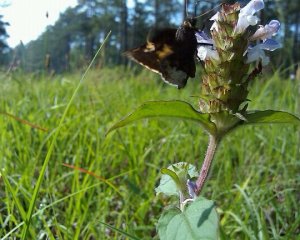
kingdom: Animalia
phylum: Arthropoda
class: Insecta
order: Lepidoptera
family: Hesperiidae
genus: Achalarus
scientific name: Achalarus lyciades
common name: Hoary Edge
